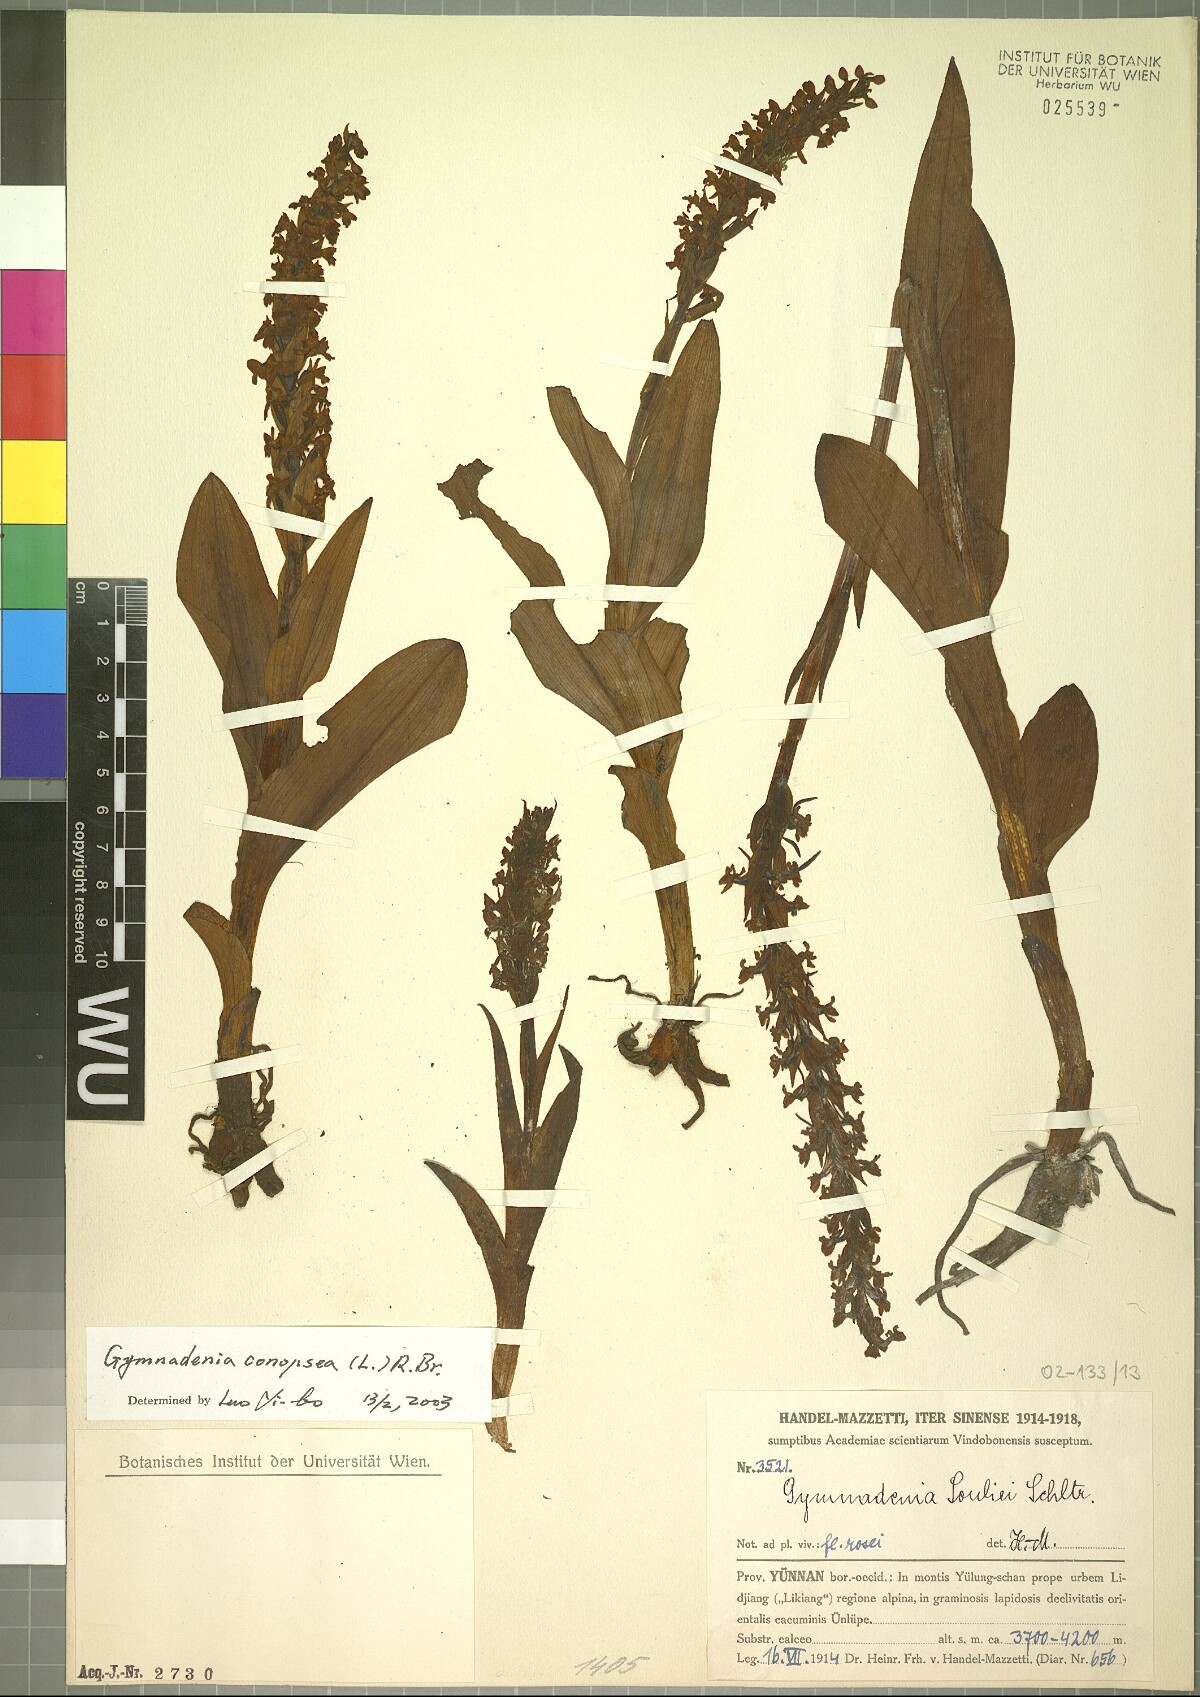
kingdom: Plantae
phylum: Tracheophyta
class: Liliopsida
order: Asparagales
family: Orchidaceae
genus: Gymnadenia
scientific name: Gymnadenia conopsea
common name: Fragrant orchid
